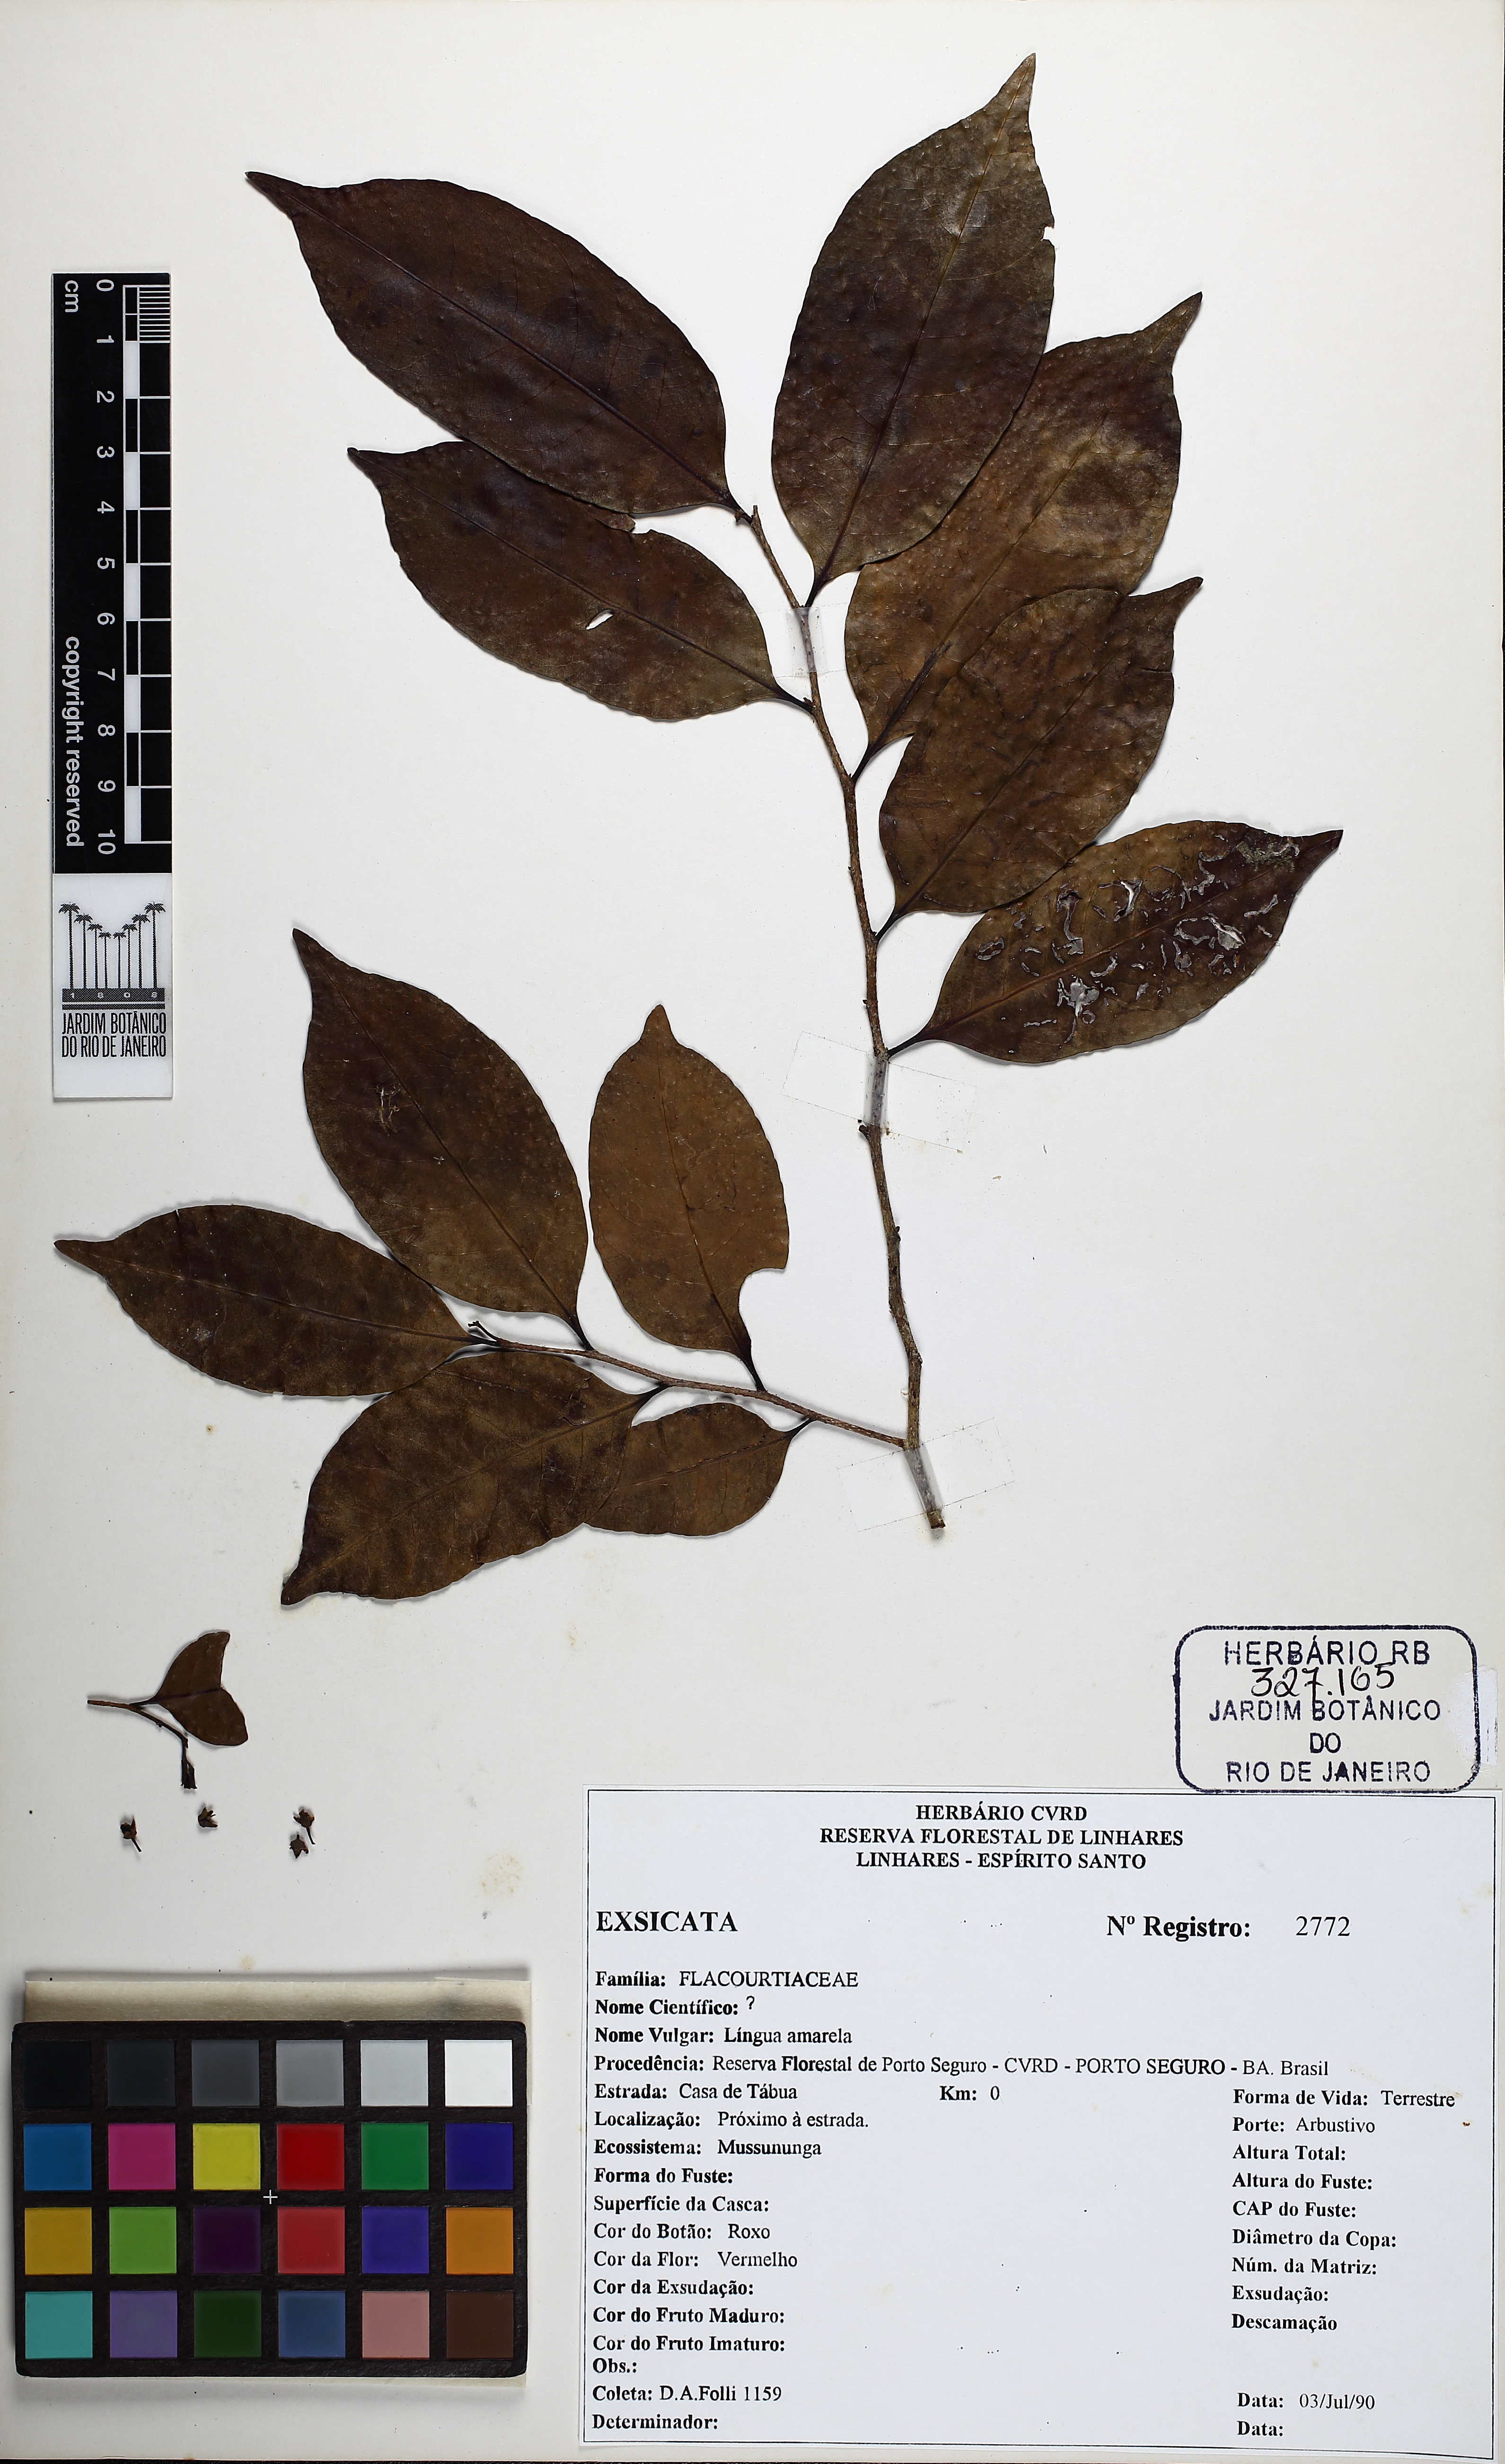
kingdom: Plantae
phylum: Tracheophyta
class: Magnoliopsida
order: Malpighiales
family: Salicaceae
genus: Casearia
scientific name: Casearia valenciana
